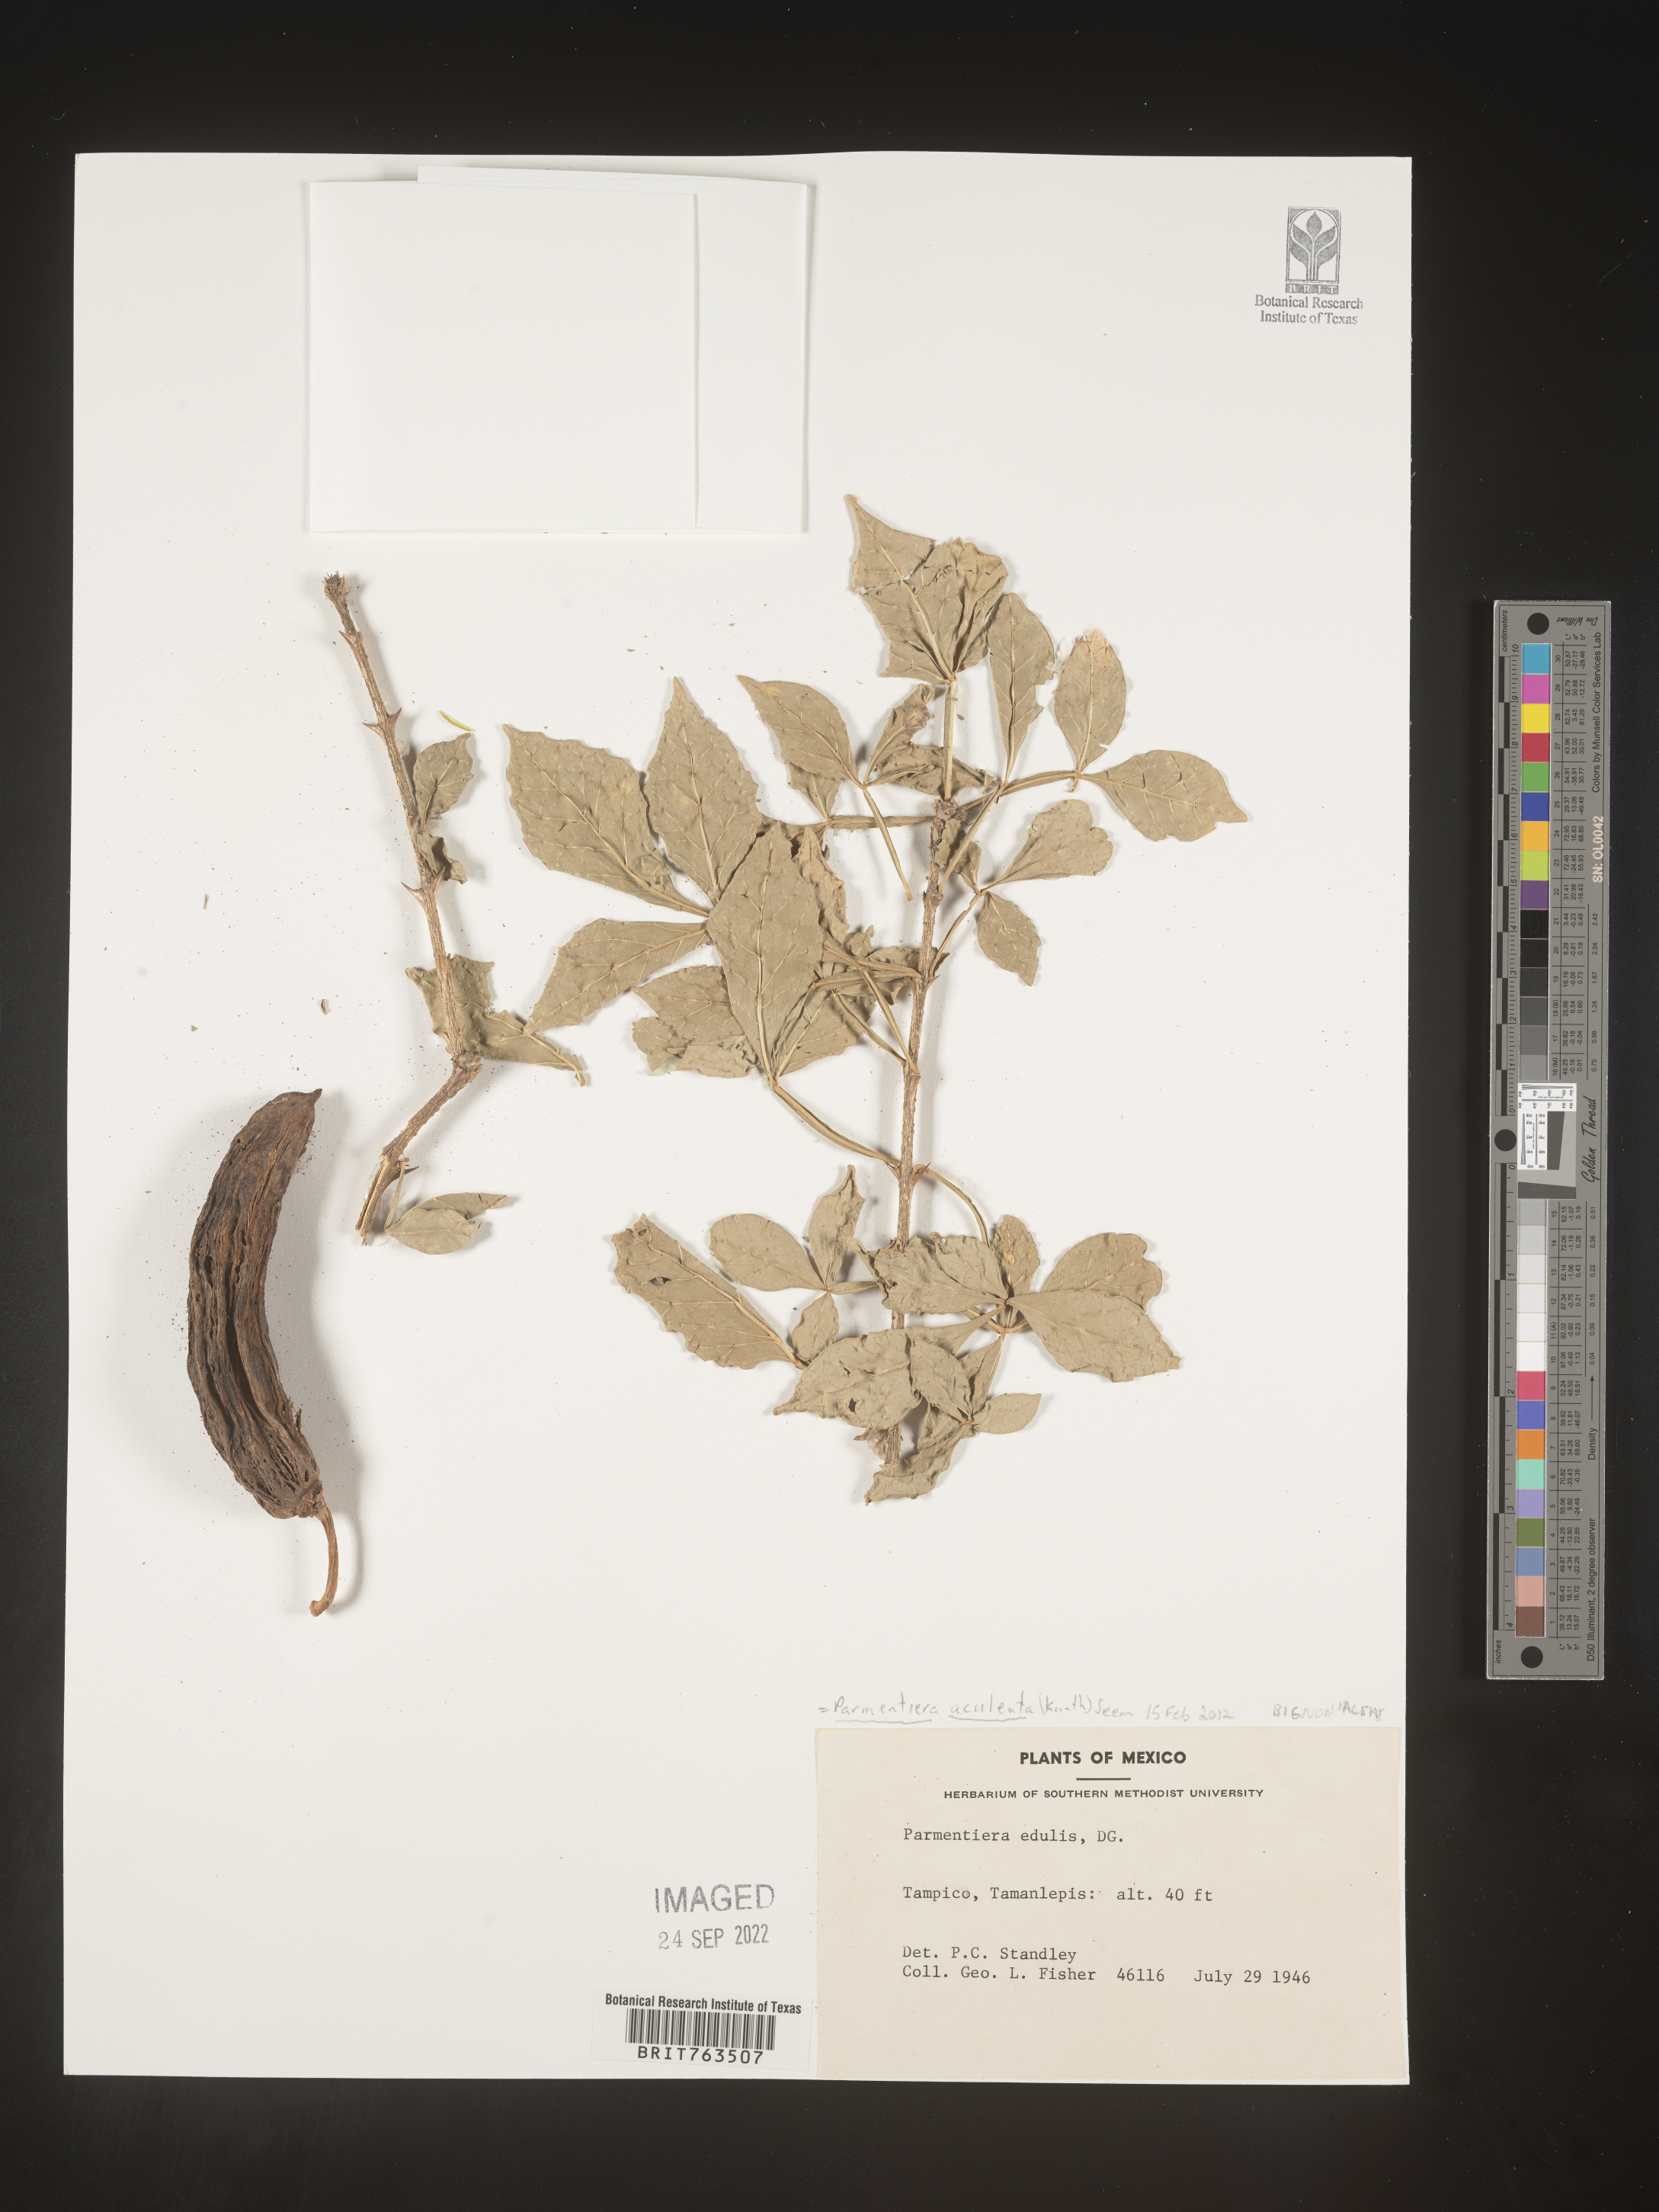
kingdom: Plantae
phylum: Tracheophyta
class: Magnoliopsida
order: Lamiales
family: Bignoniaceae
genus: Parmentiera
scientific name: Parmentiera
